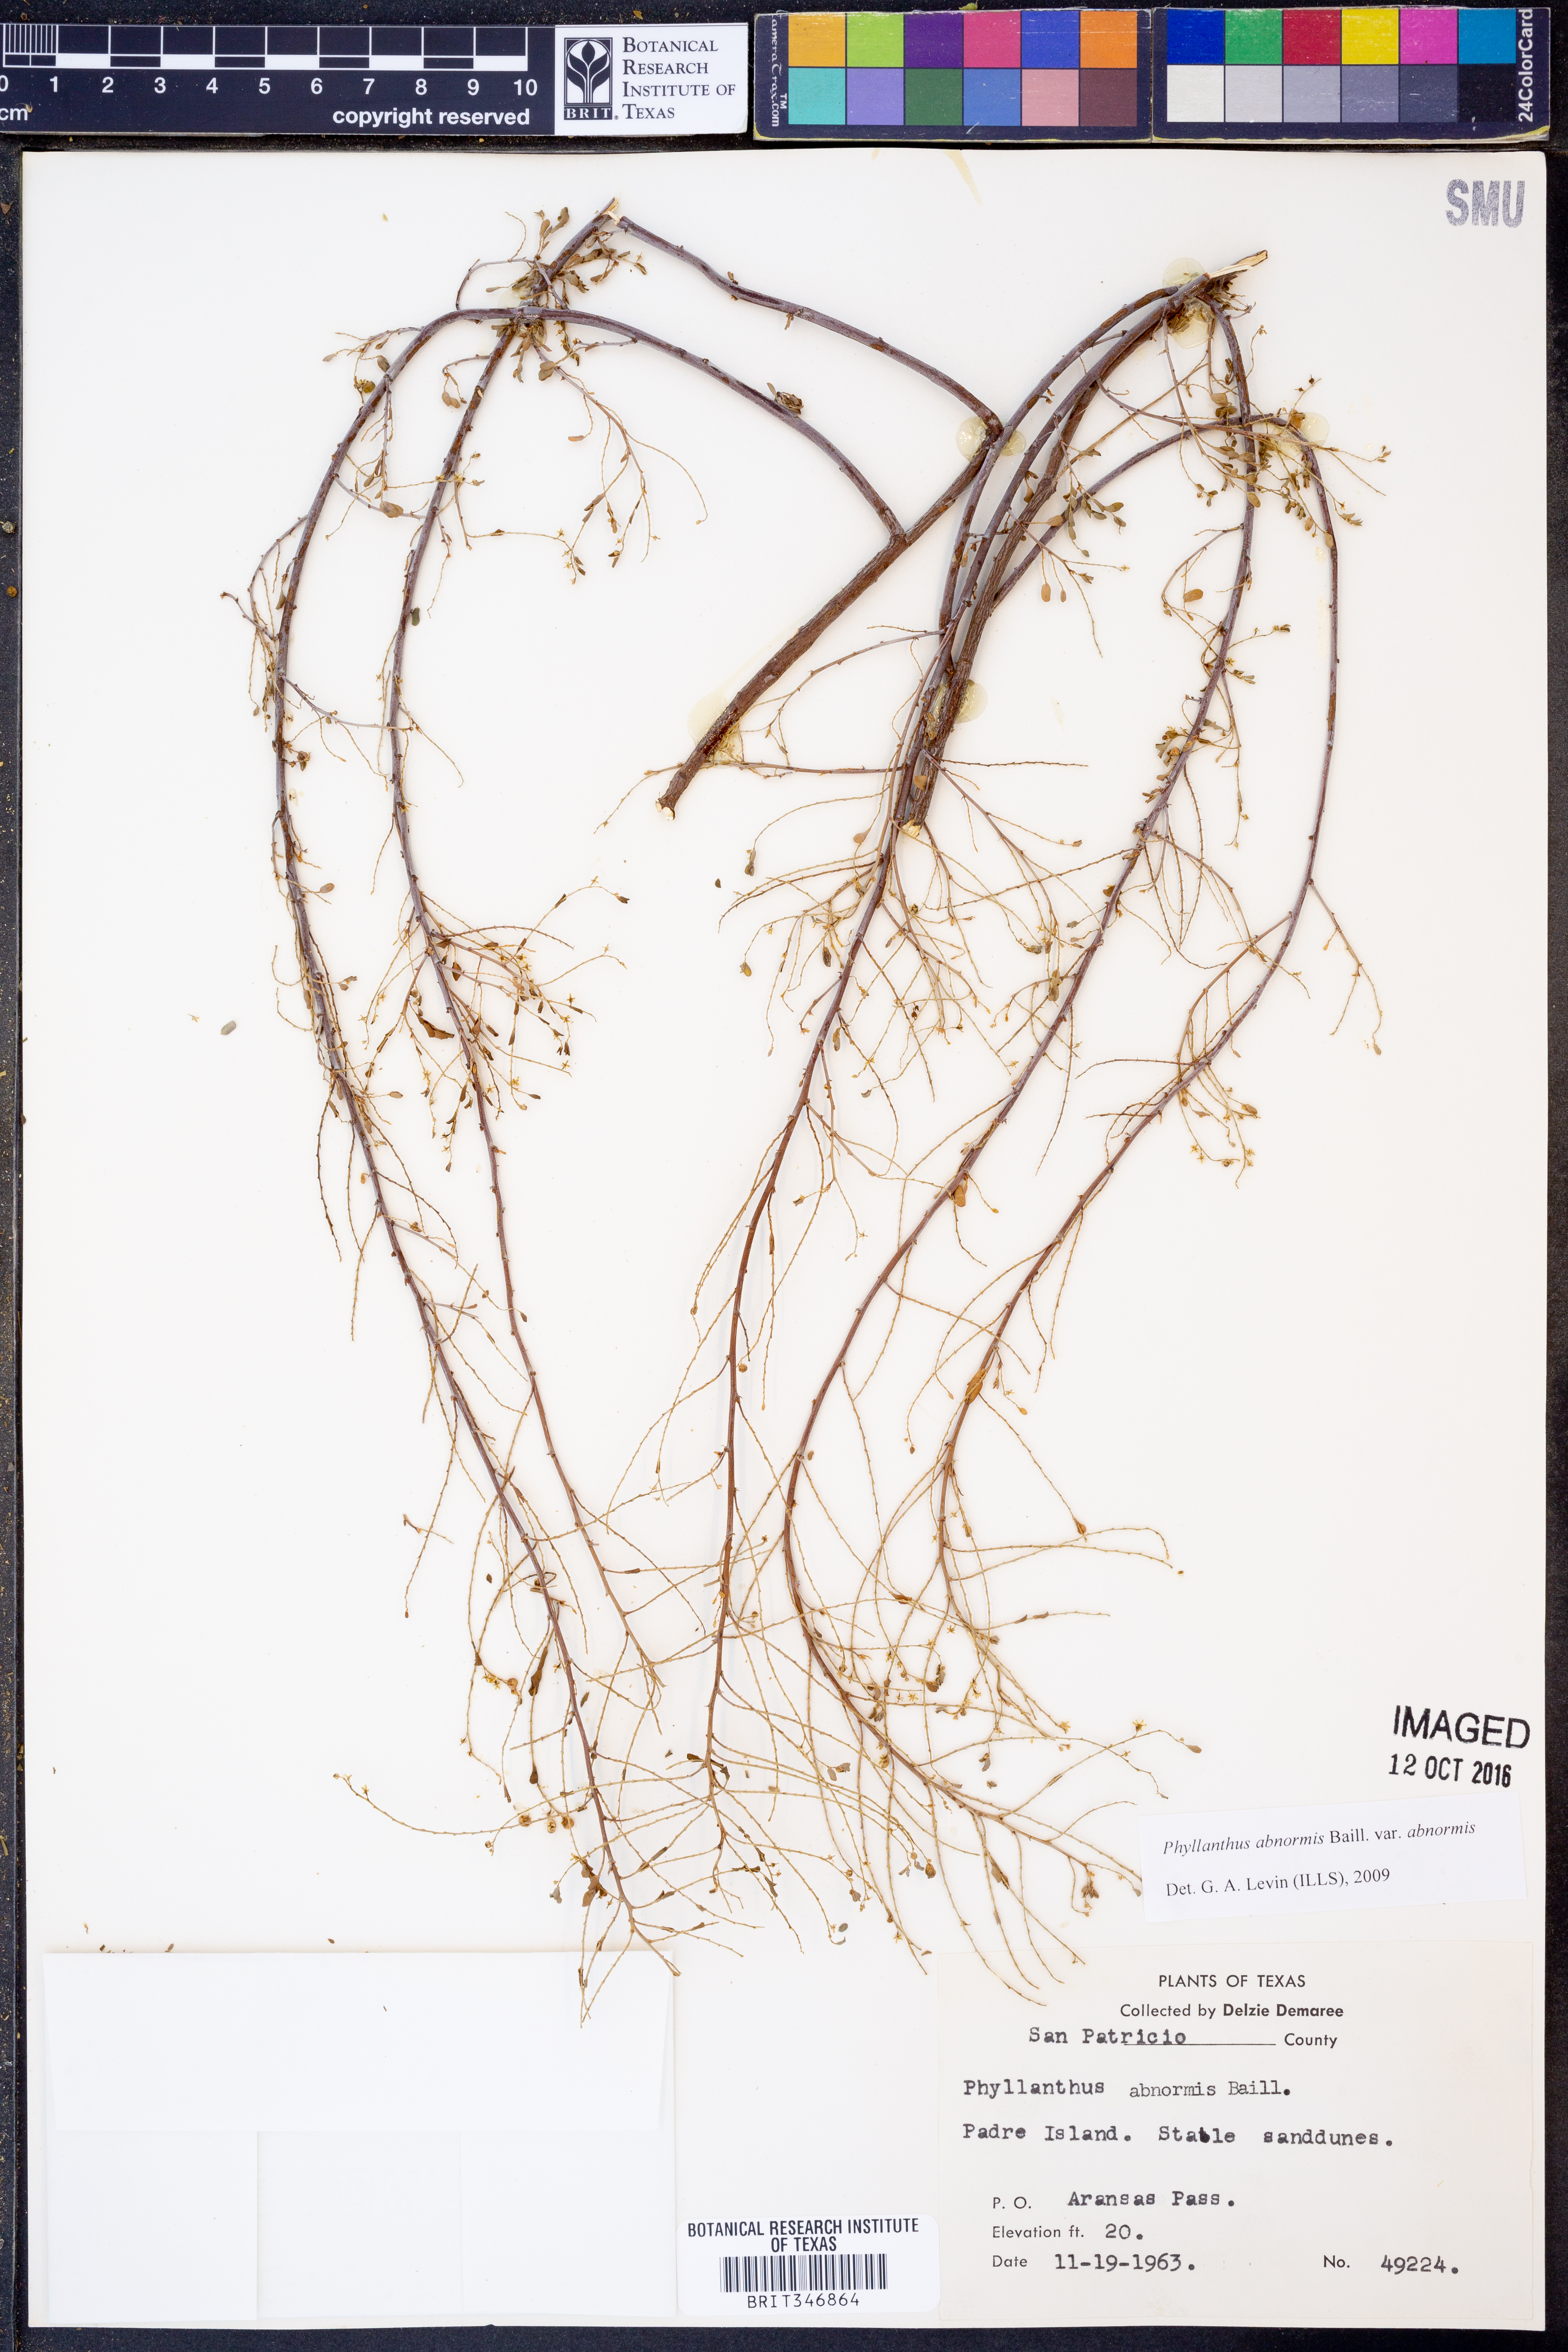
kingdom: Plantae
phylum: Tracheophyta
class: Magnoliopsida
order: Malpighiales
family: Phyllanthaceae
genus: Phyllanthus
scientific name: Phyllanthus abnormis
